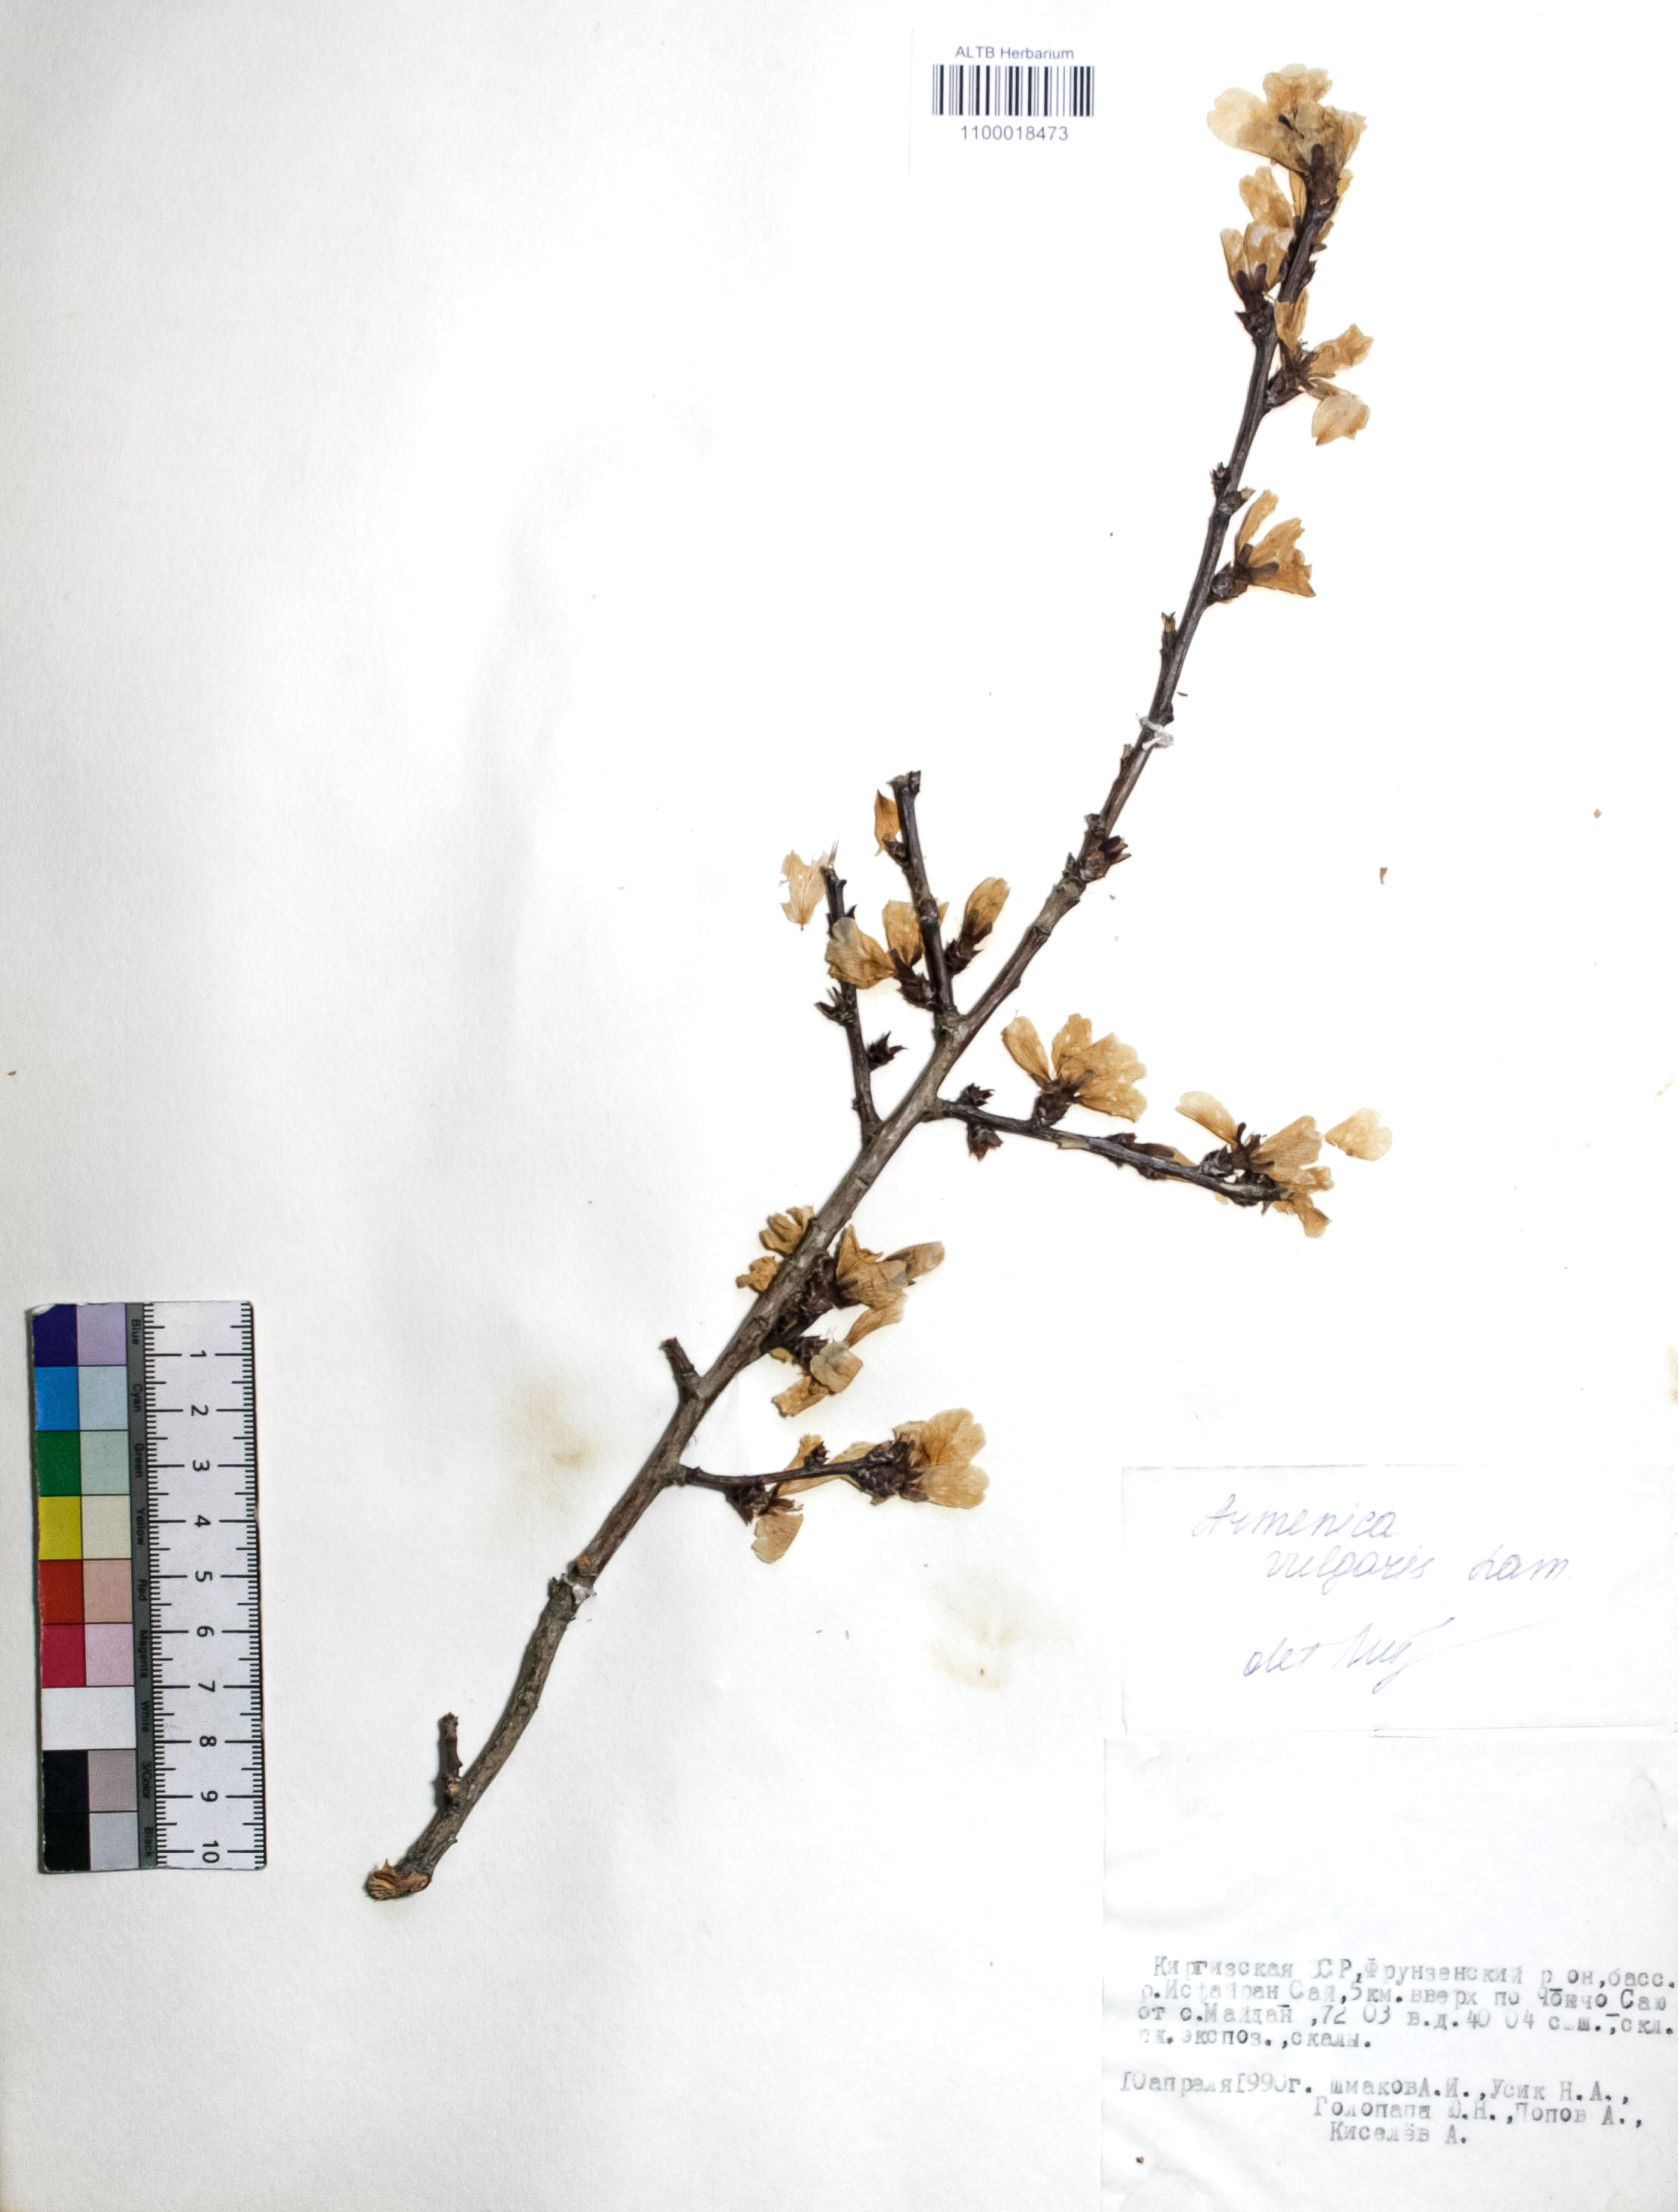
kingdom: Plantae
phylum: Tracheophyta
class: Magnoliopsida
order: Rosales
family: Rosaceae
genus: Prunus
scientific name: Prunus armeniaca
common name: Apricot
